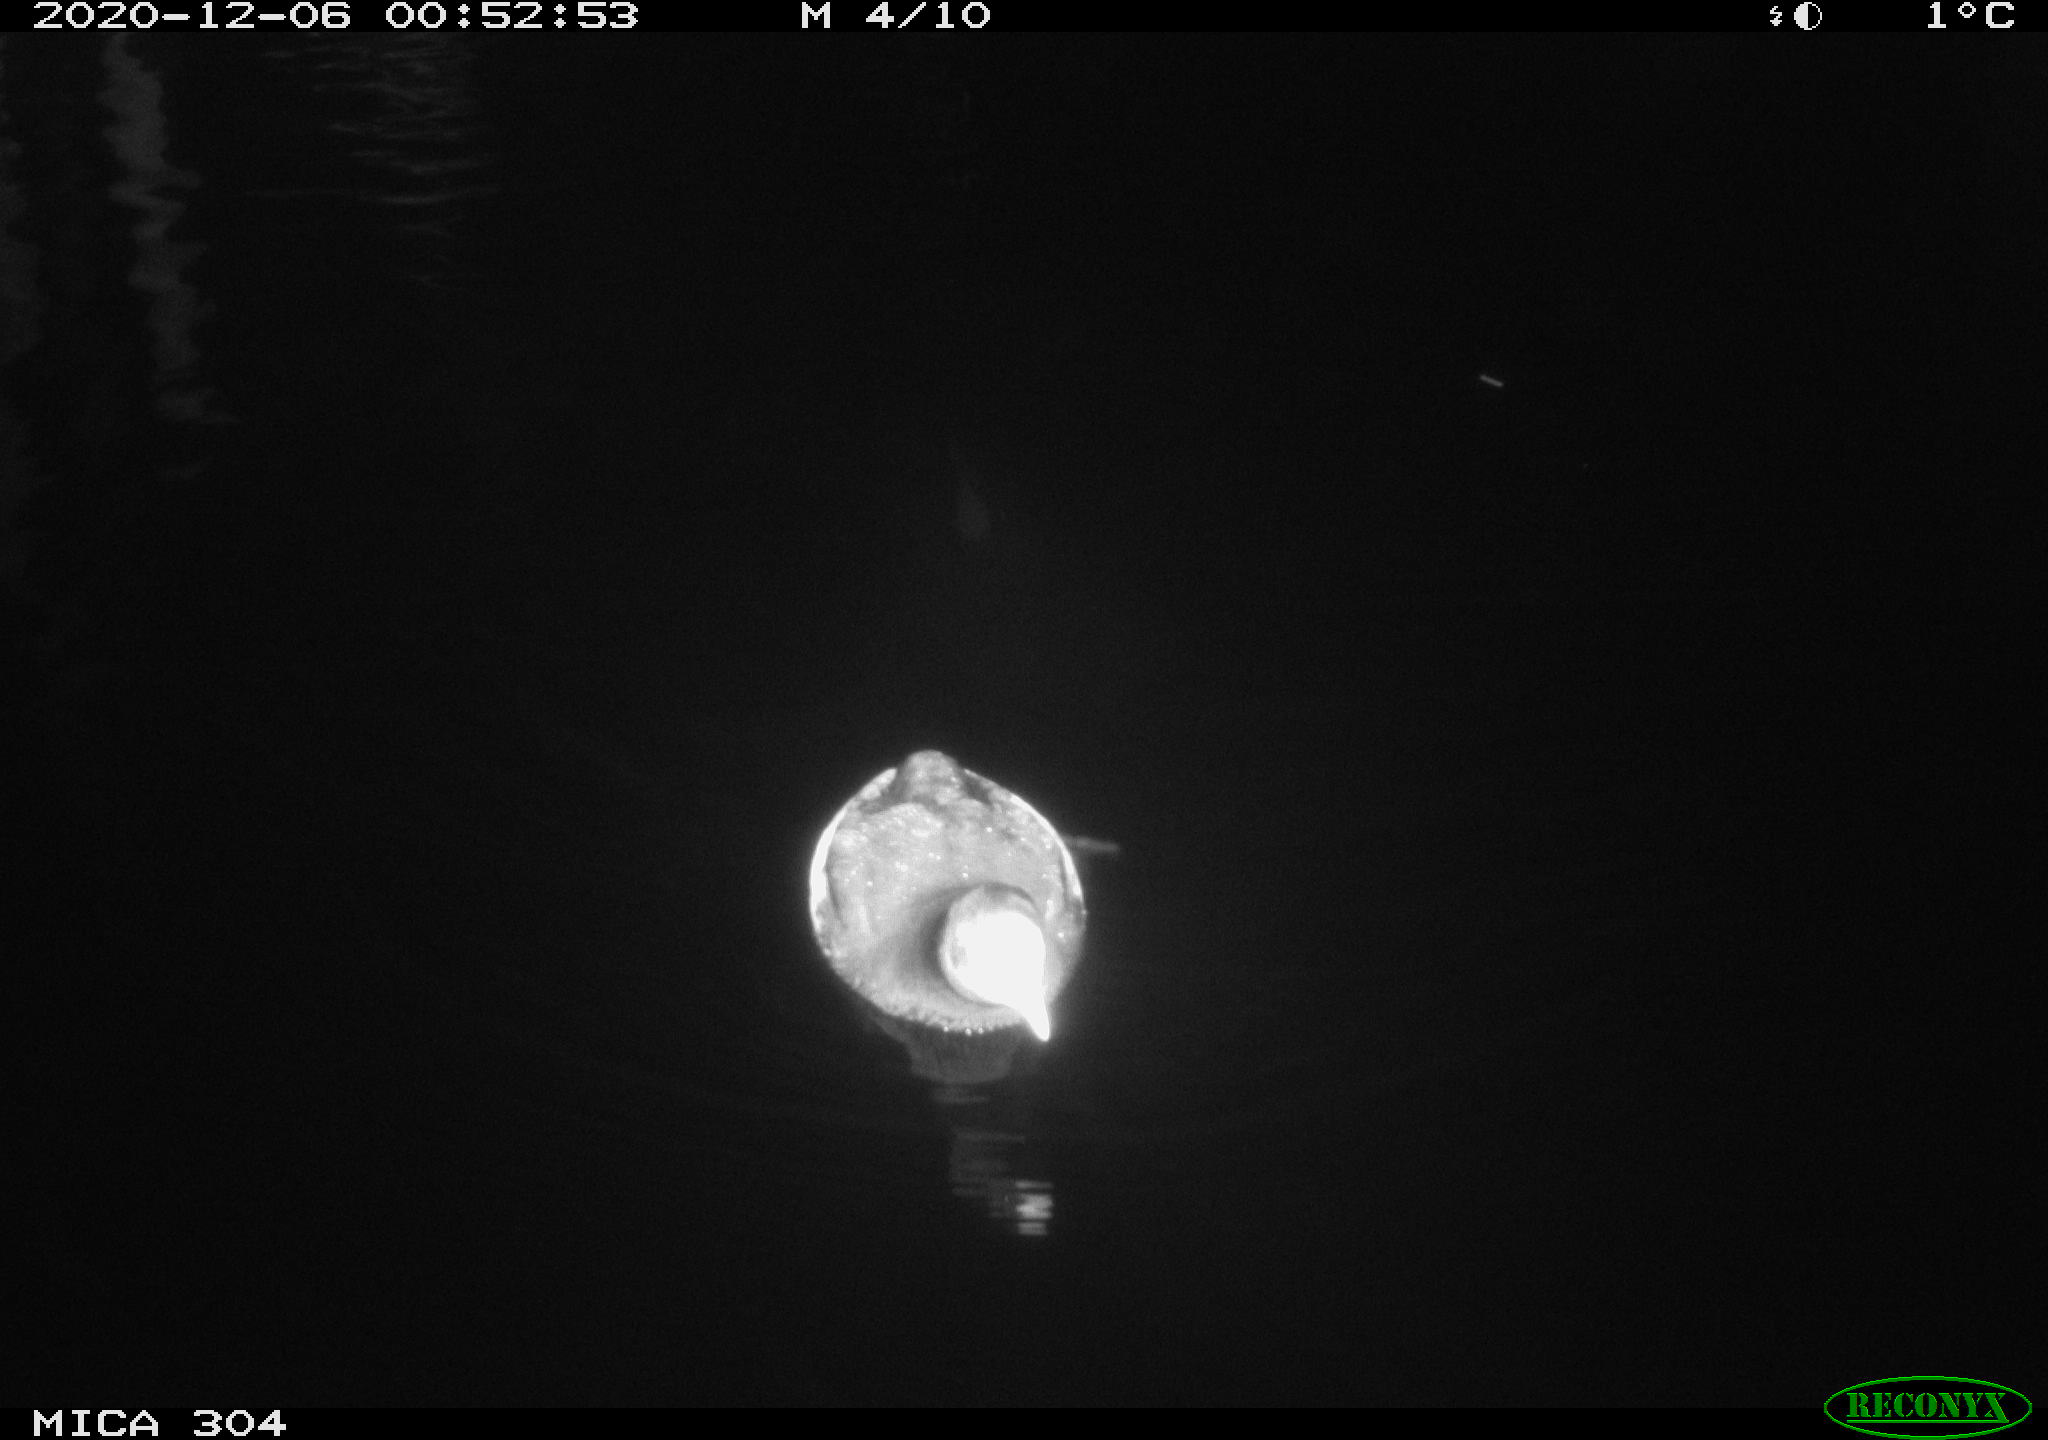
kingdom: Animalia
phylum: Chordata
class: Aves
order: Gruiformes
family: Rallidae
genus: Gallinula
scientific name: Gallinula chloropus
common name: Common moorhen
